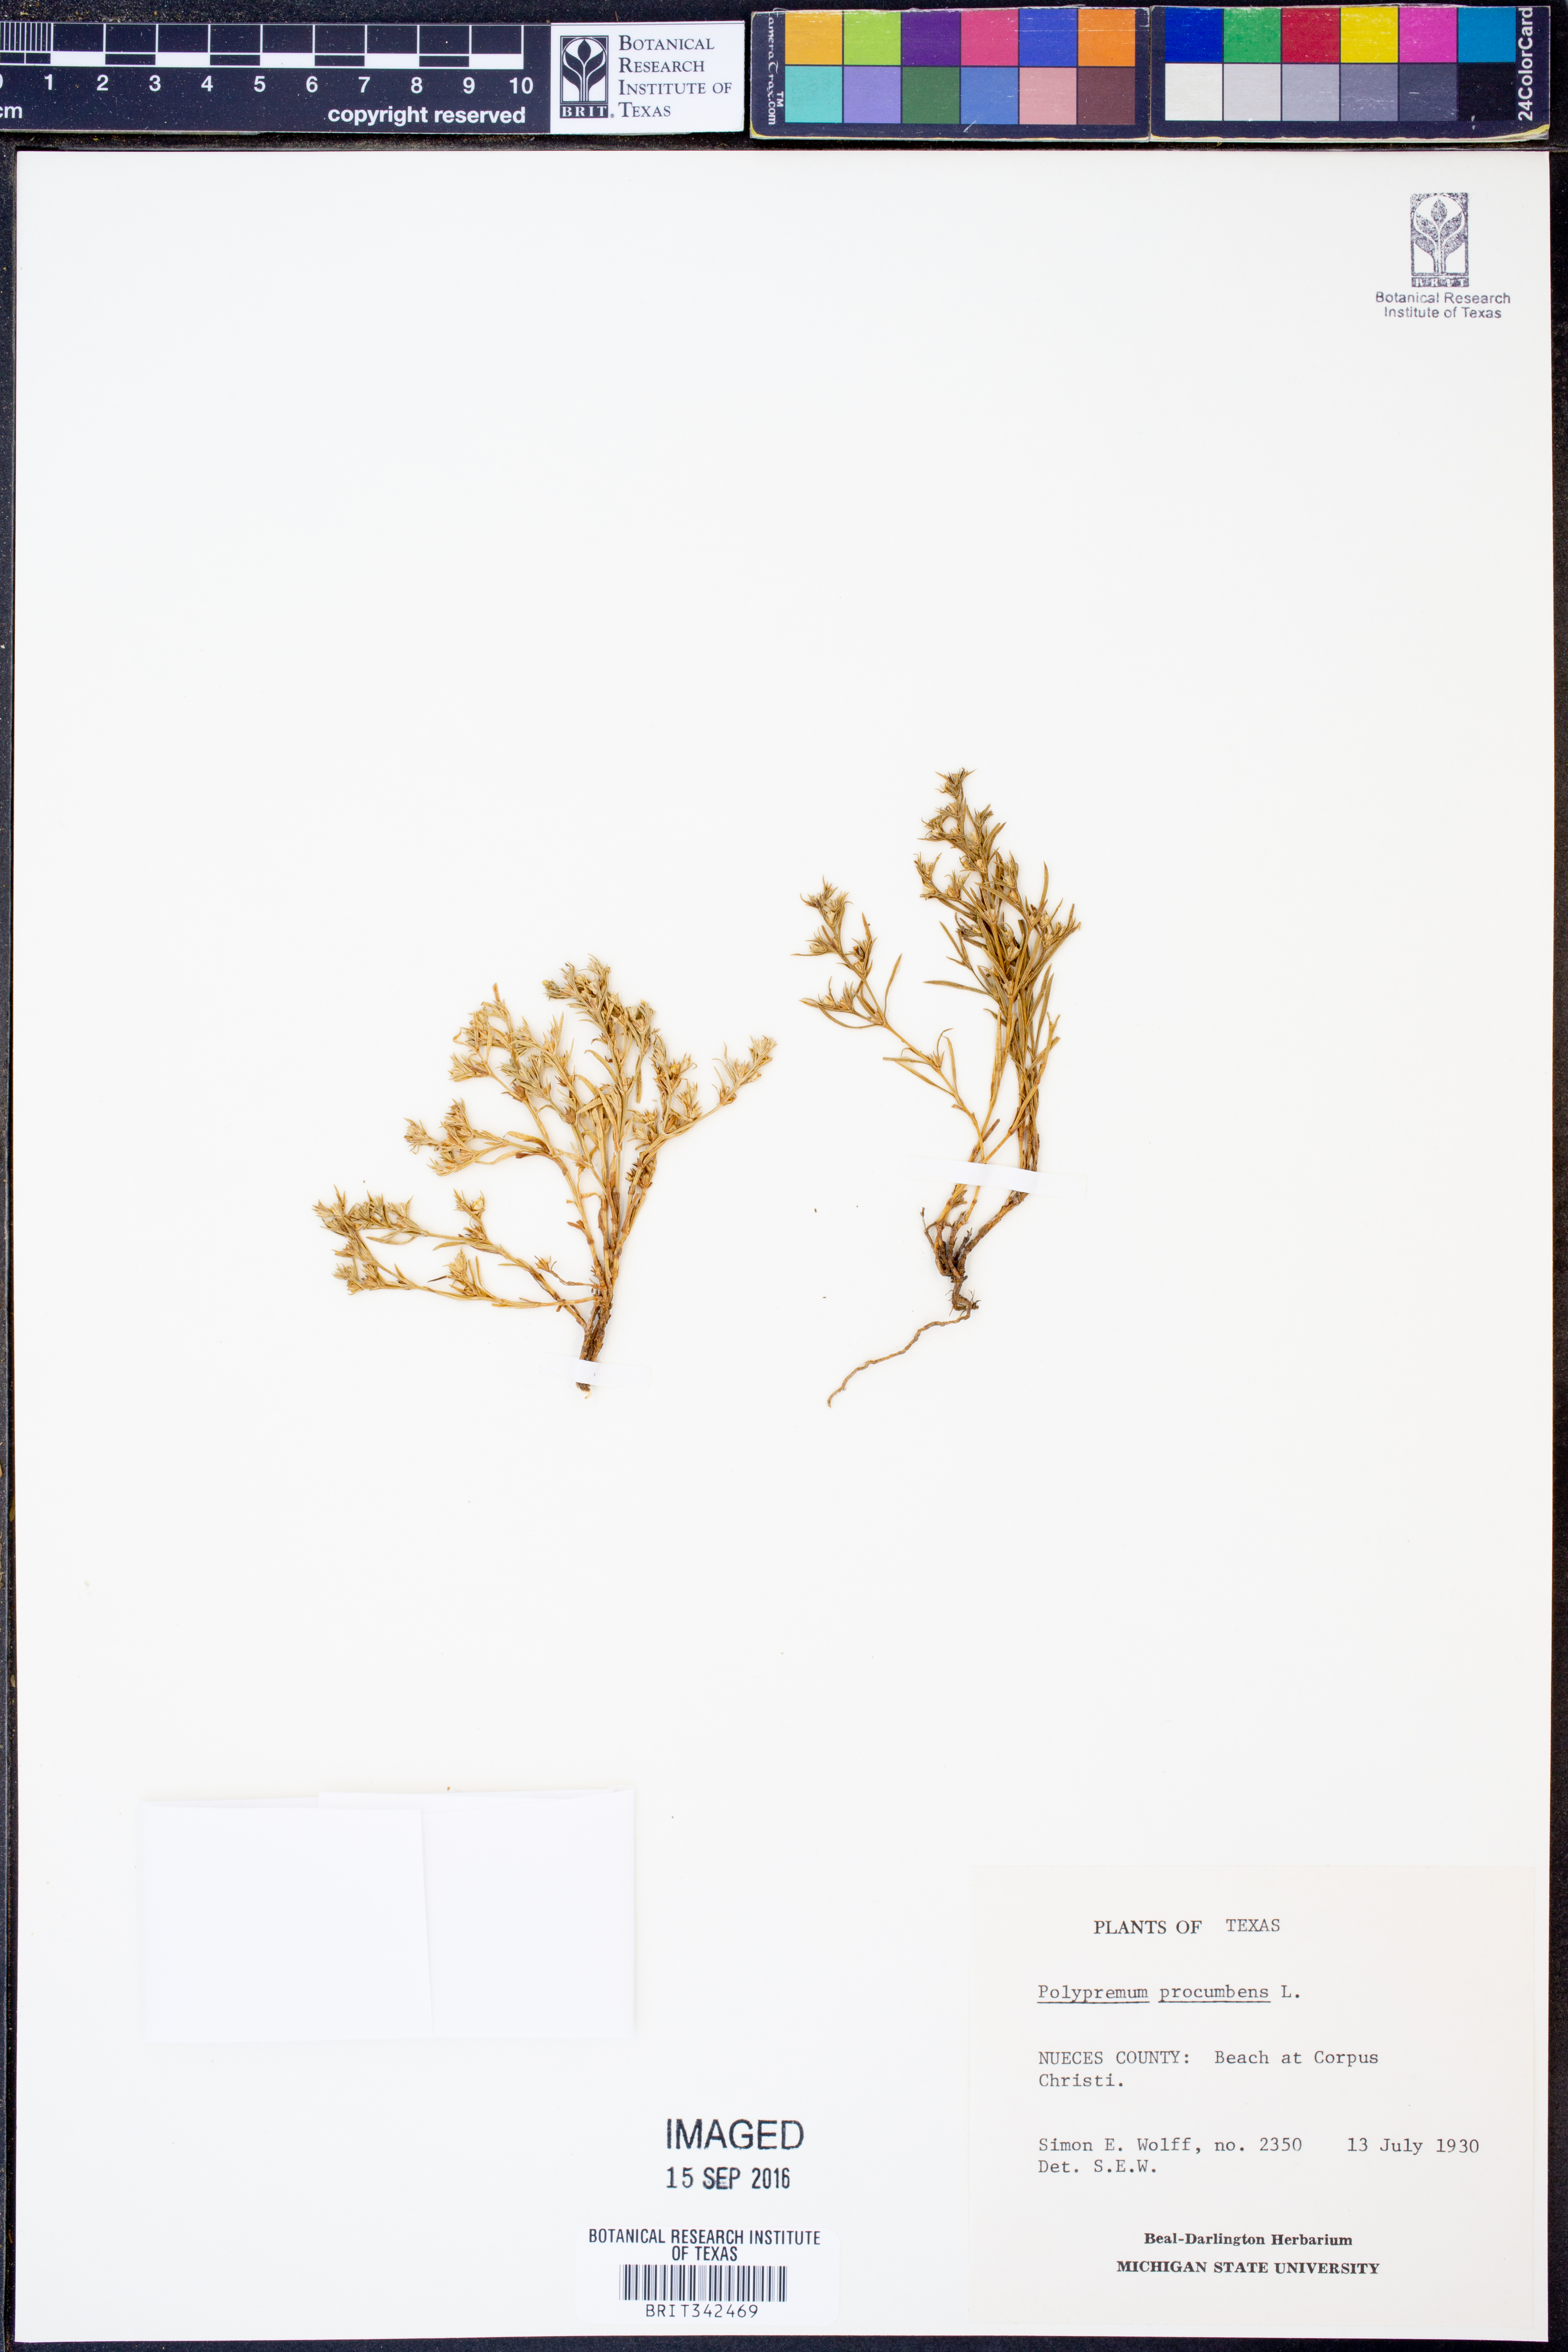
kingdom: Plantae
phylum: Tracheophyta
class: Magnoliopsida
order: Lamiales
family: Tetrachondraceae
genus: Polypremum
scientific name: Polypremum procumbens
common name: Juniper-leaf
